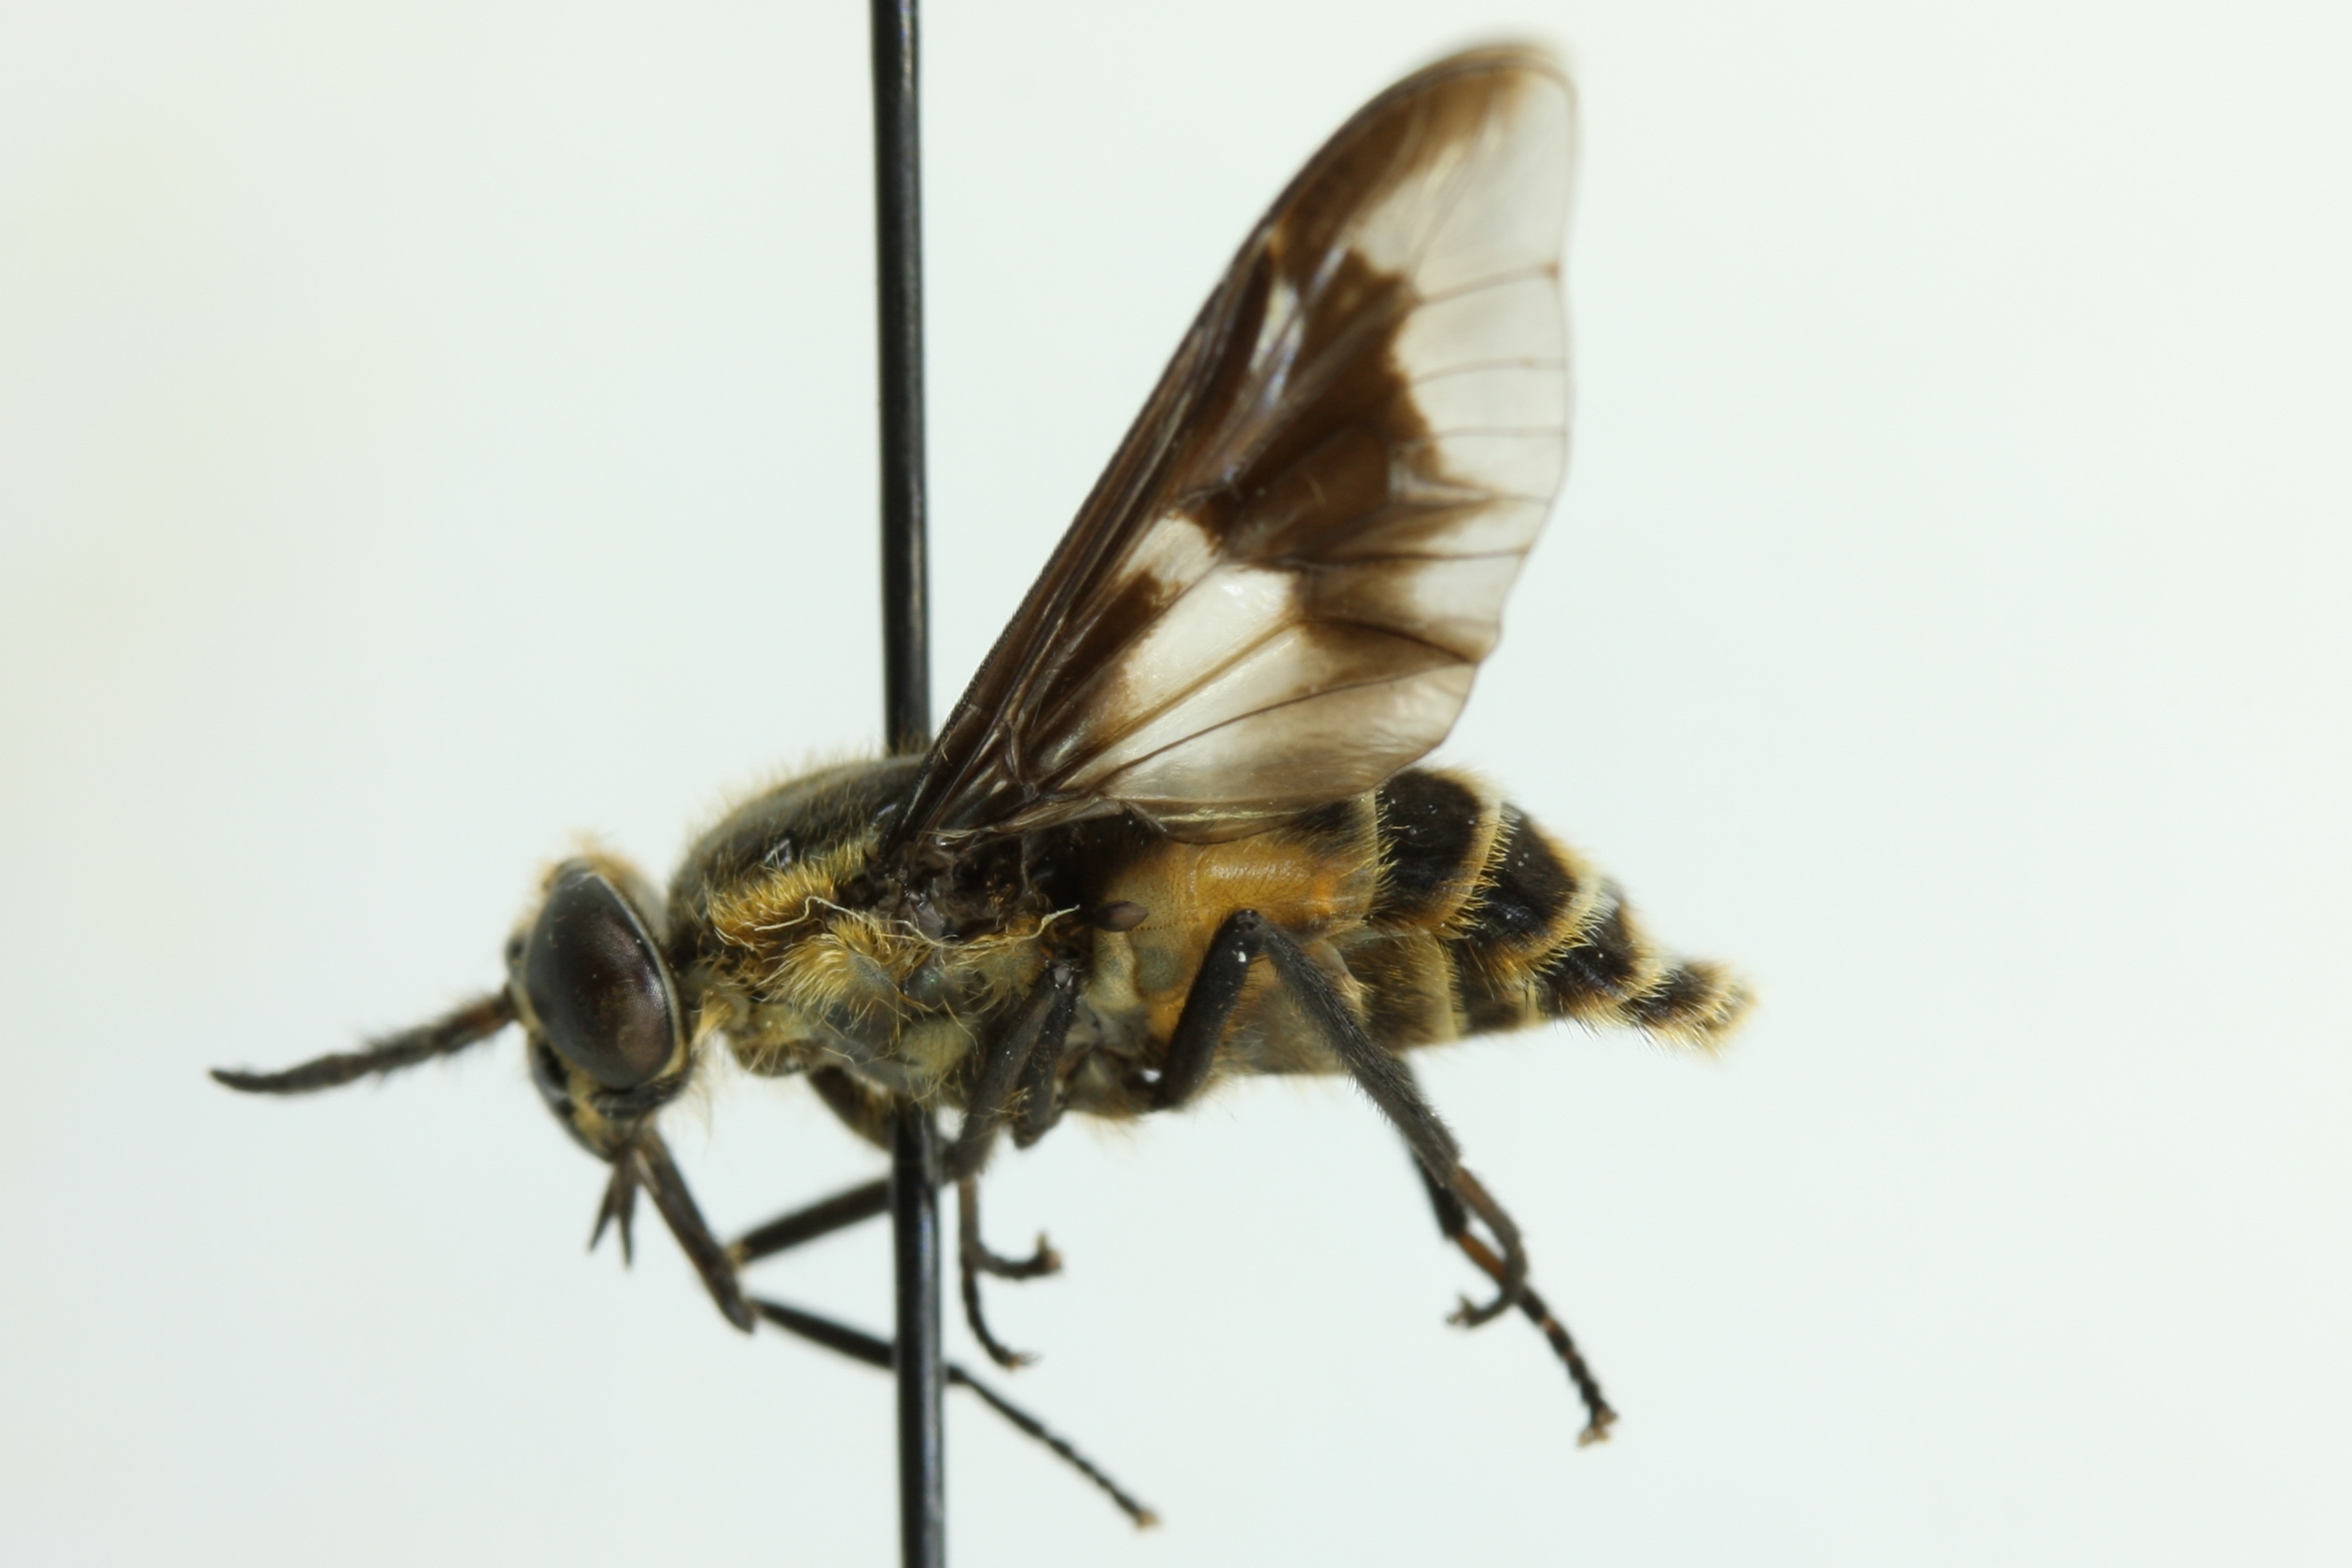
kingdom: Animalia
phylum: Arthropoda
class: Insecta
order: Diptera
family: Tabanidae
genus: Chrysops
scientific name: Chrysops nigripes
